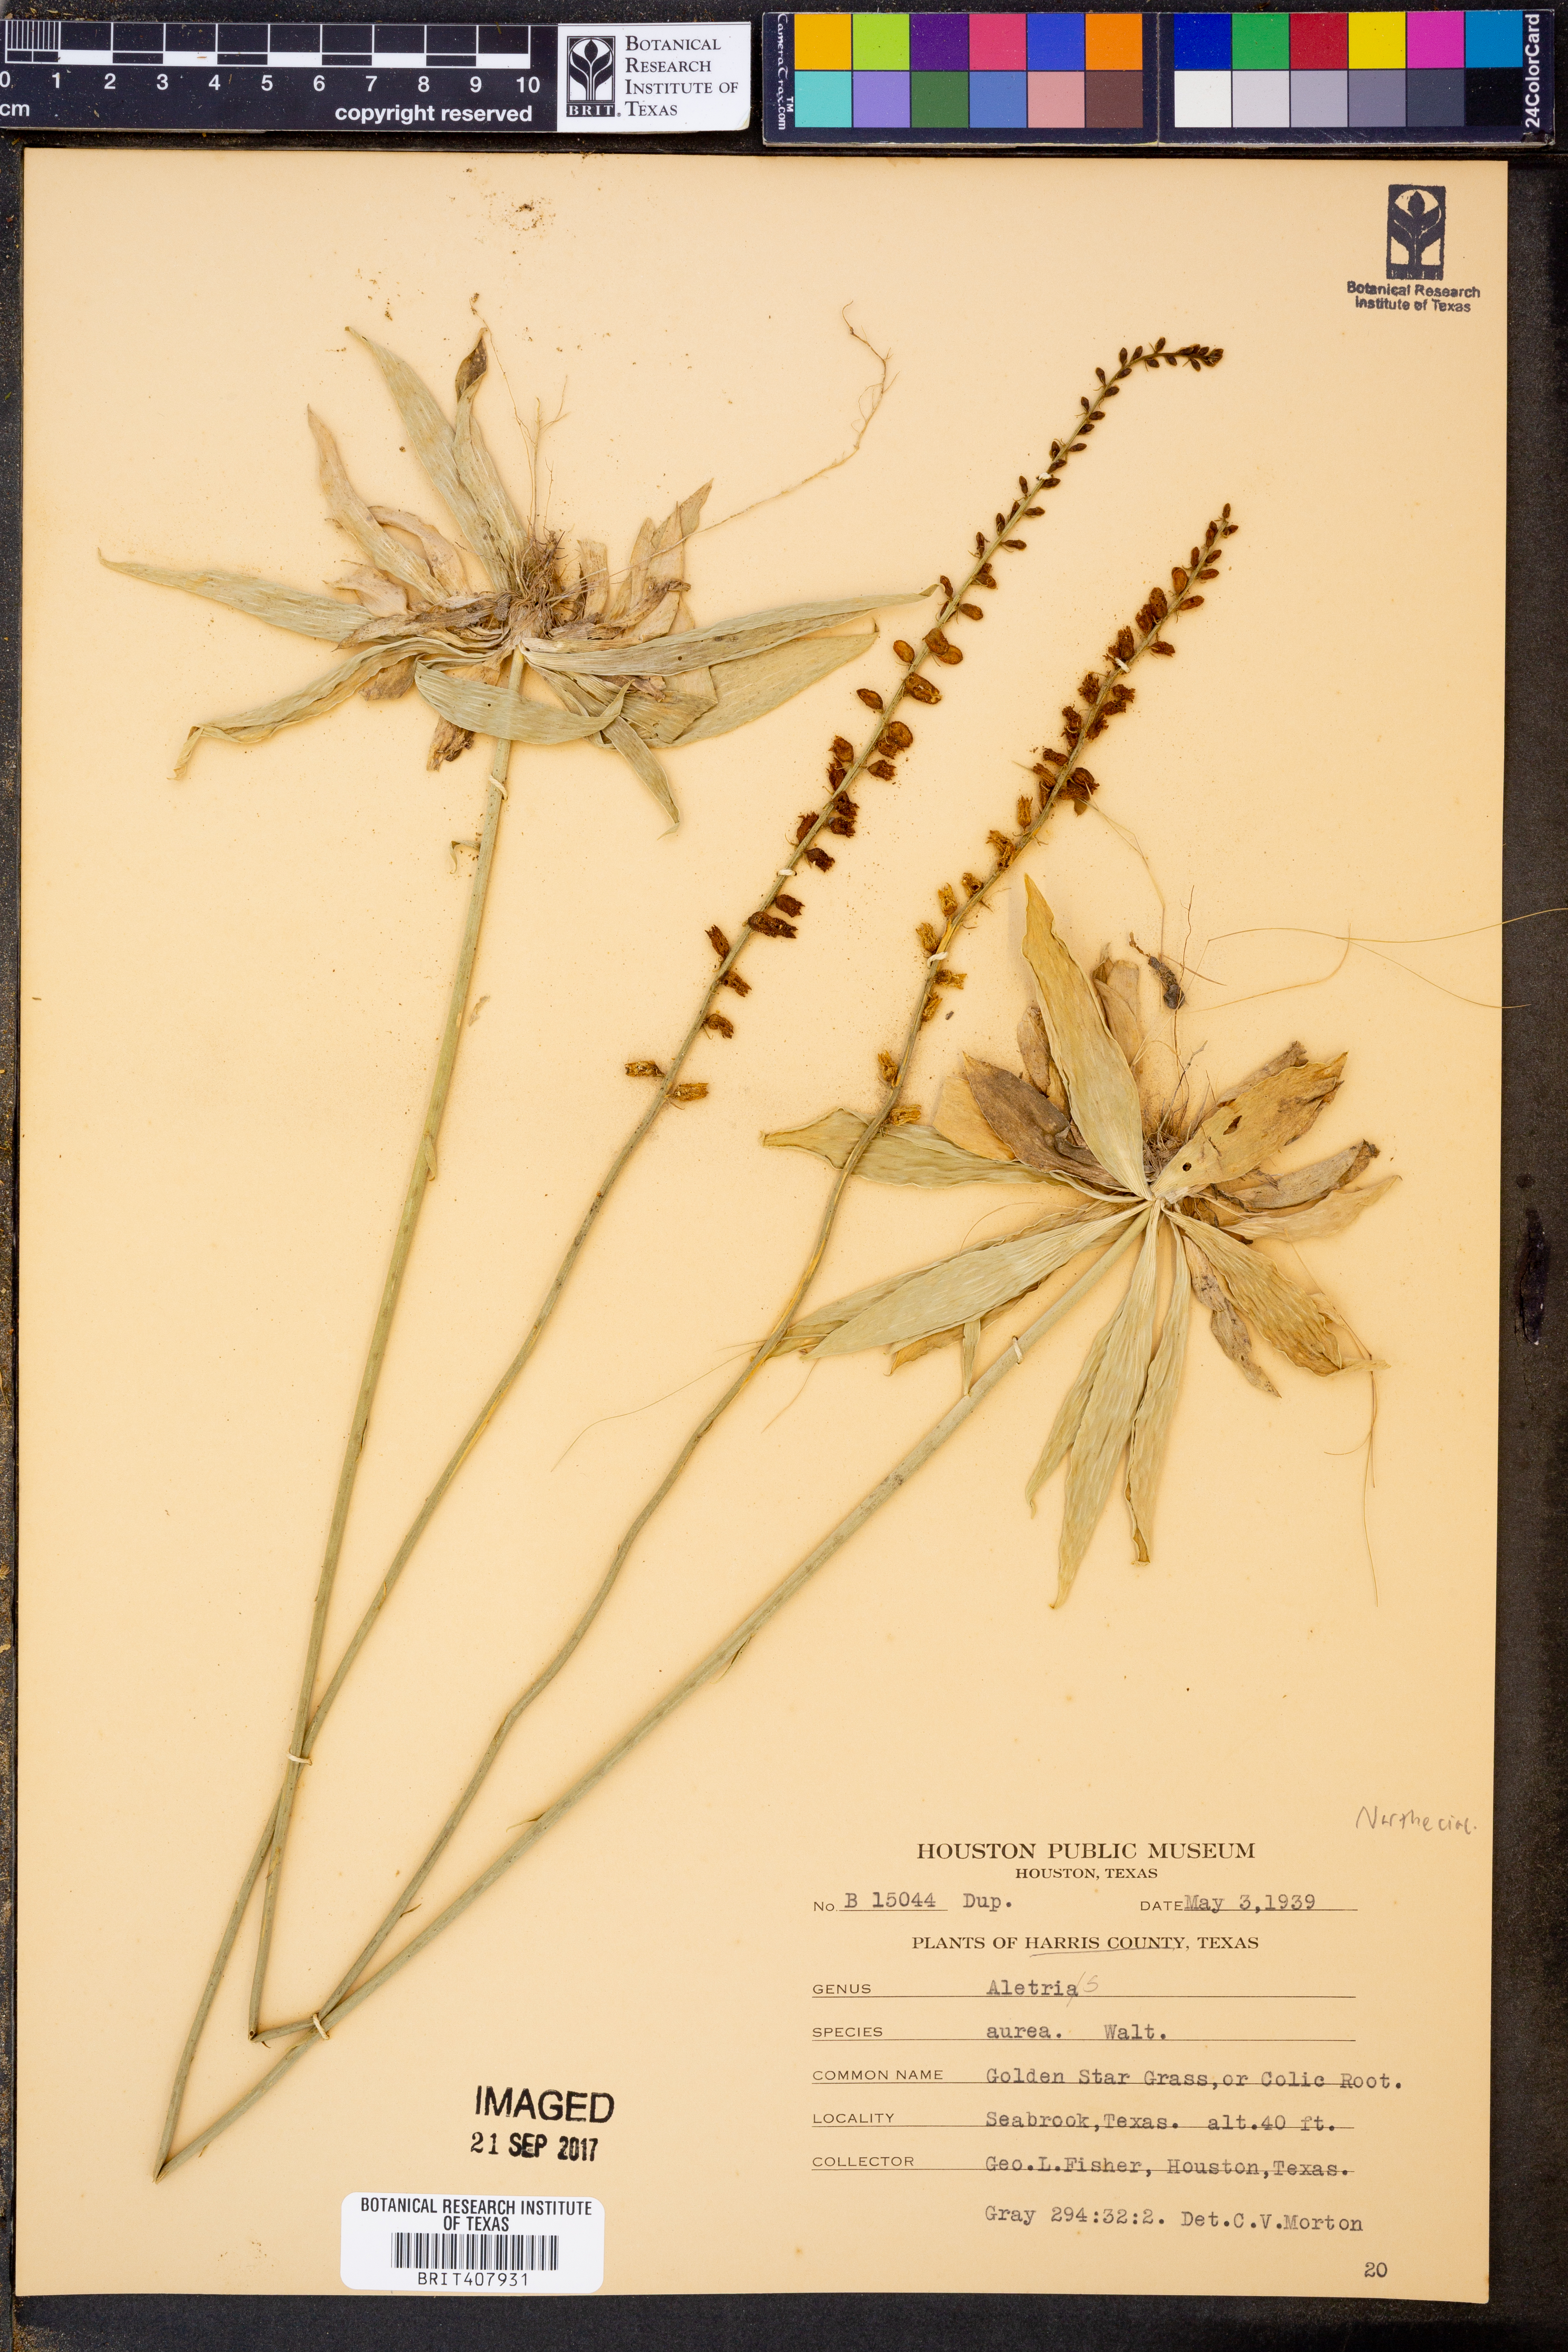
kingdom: Plantae
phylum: Tracheophyta
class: Liliopsida
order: Dioscoreales
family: Nartheciaceae
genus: Aletris
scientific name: Aletris aurea
